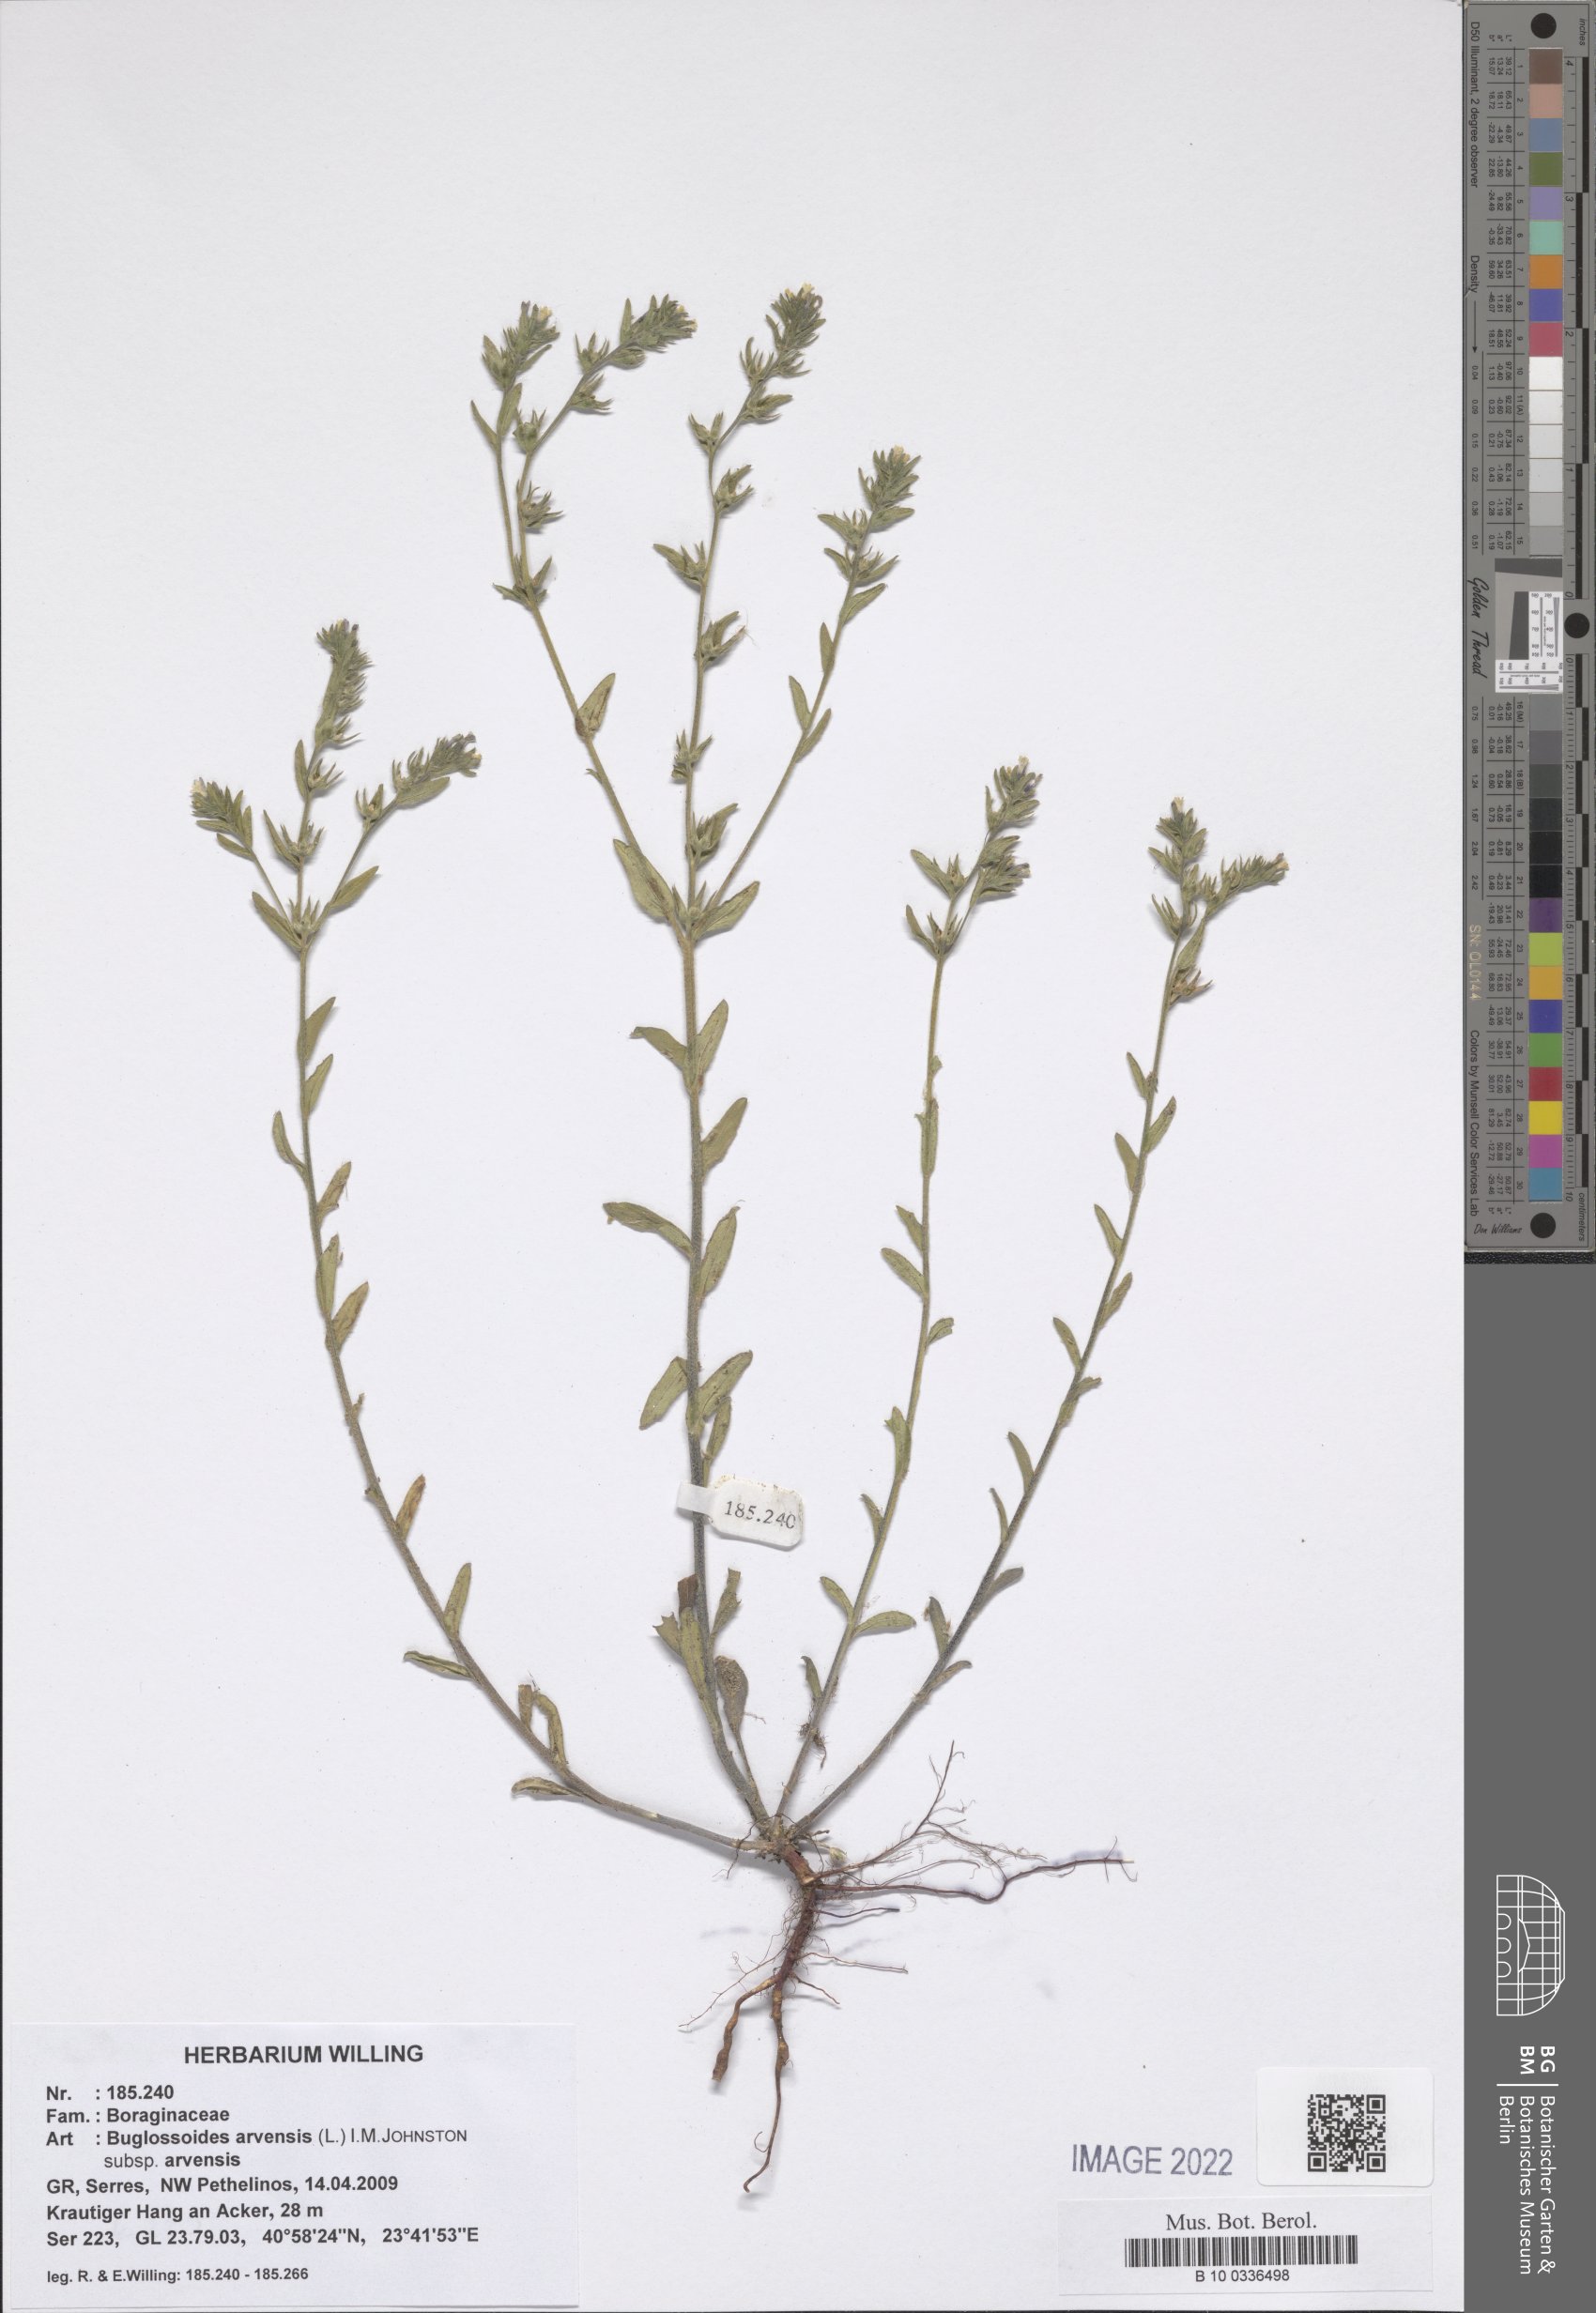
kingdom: Plantae
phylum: Tracheophyta
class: Magnoliopsida
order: Boraginales
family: Boraginaceae
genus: Buglossoides
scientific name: Buglossoides arvensis
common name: Corn gromwell
